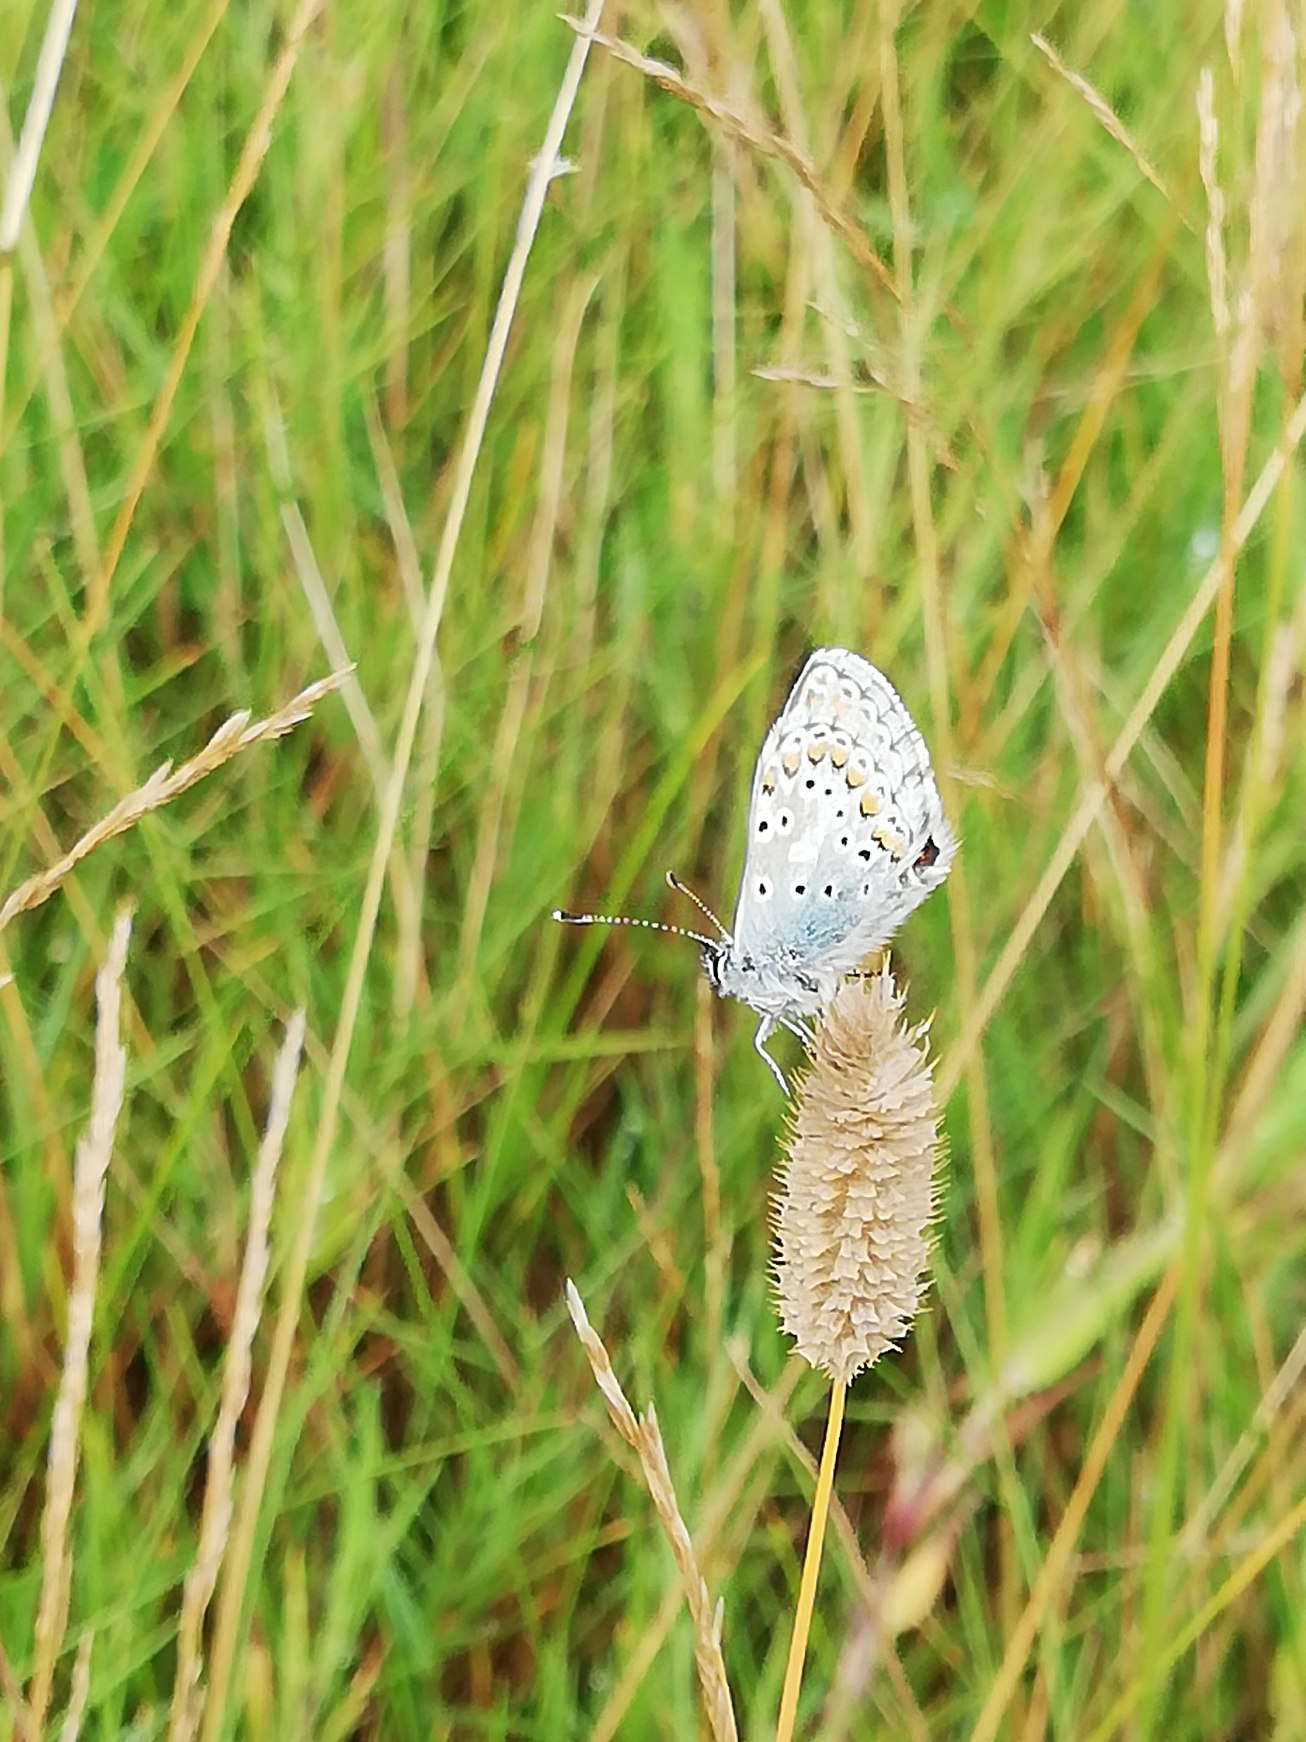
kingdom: Animalia
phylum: Arthropoda
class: Insecta
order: Lepidoptera
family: Lycaenidae
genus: Polyommatus
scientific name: Polyommatus icarus
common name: Almindelig blåfugl
